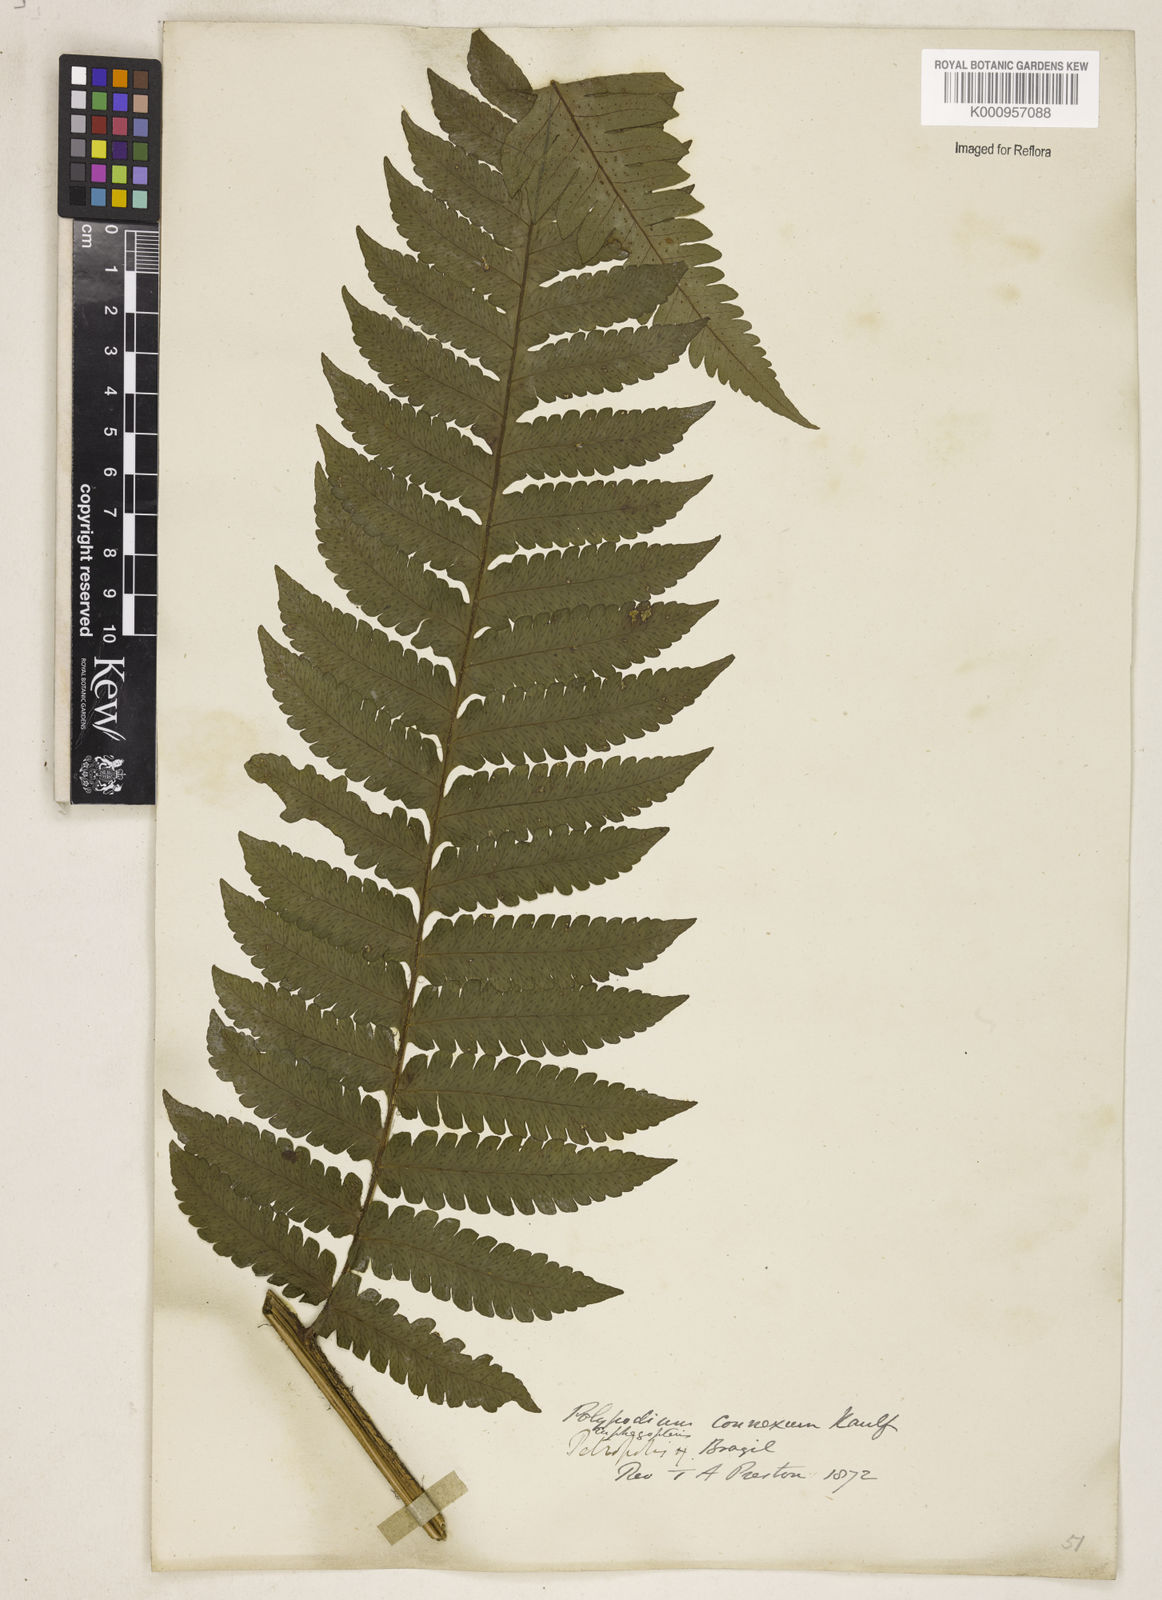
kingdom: Plantae
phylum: Tracheophyta
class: Polypodiopsida
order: Polypodiales
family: Dryopteridaceae
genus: Megalastrum
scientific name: Megalastrum connexum
